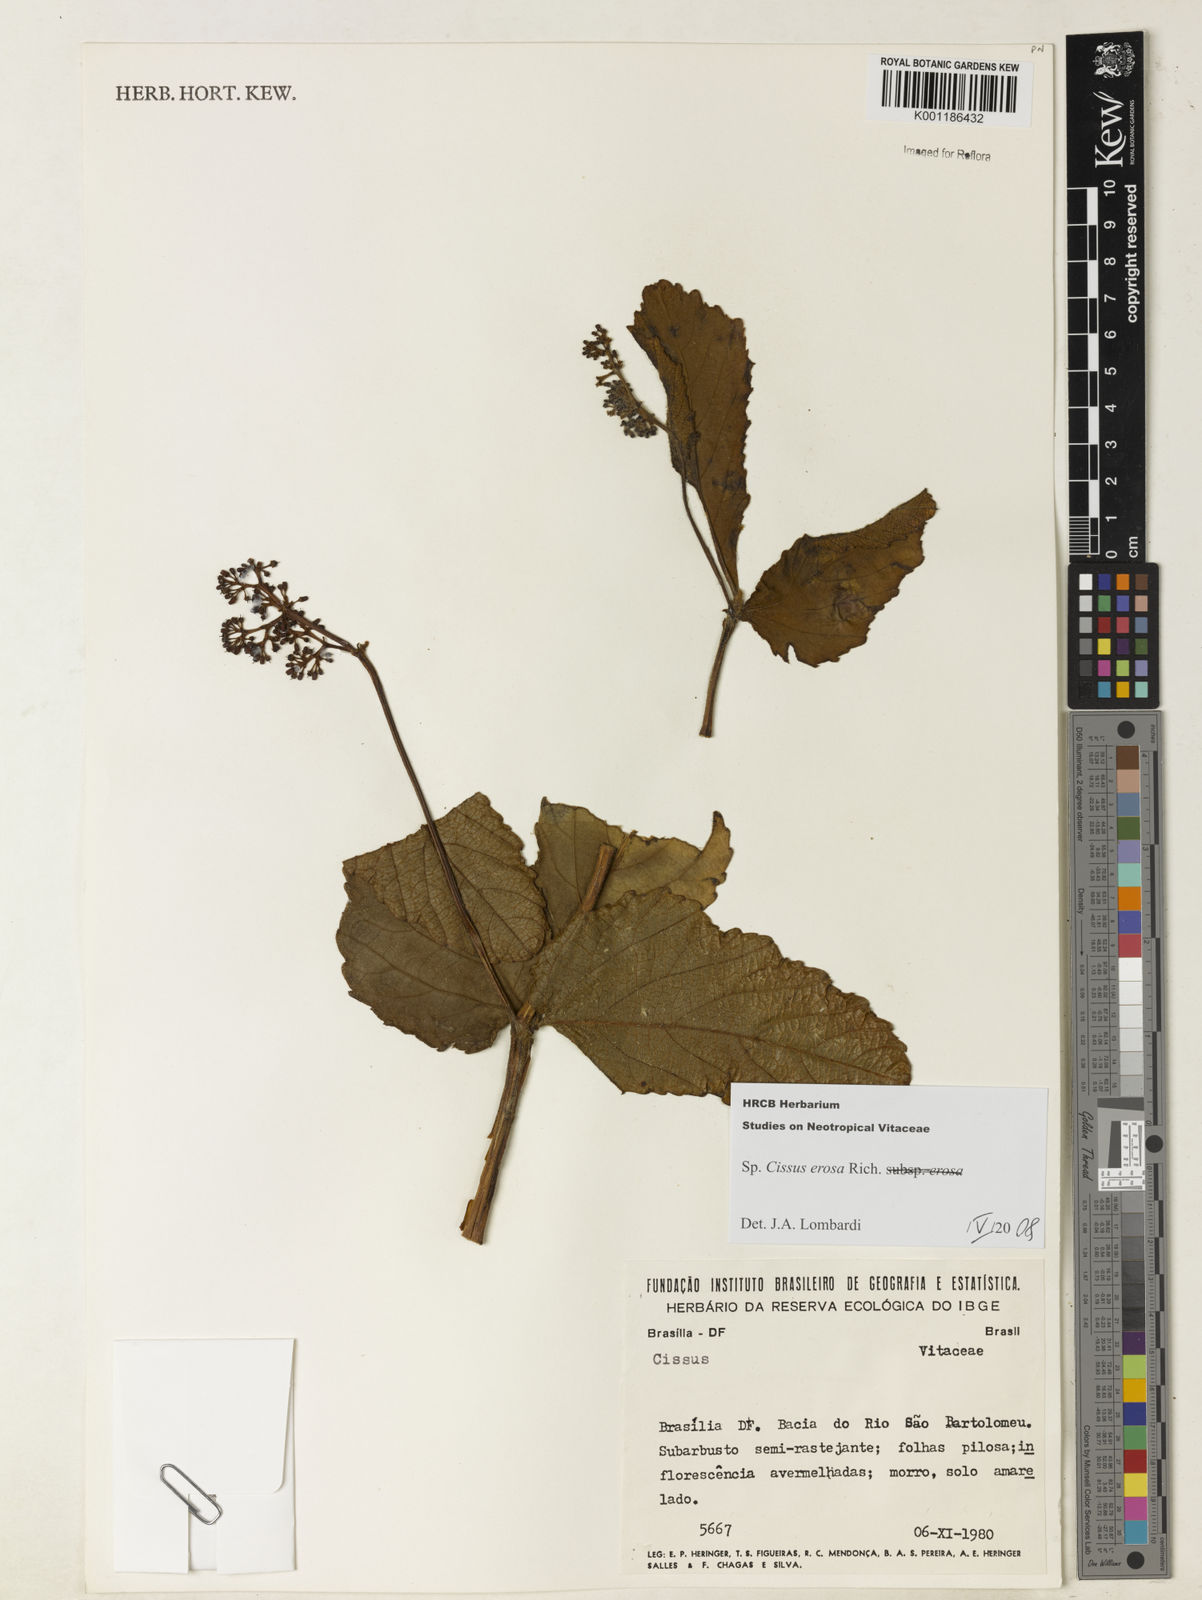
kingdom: Plantae
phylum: Tracheophyta
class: Magnoliopsida
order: Vitales
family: Vitaceae
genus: Cissus
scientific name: Cissus erosa
